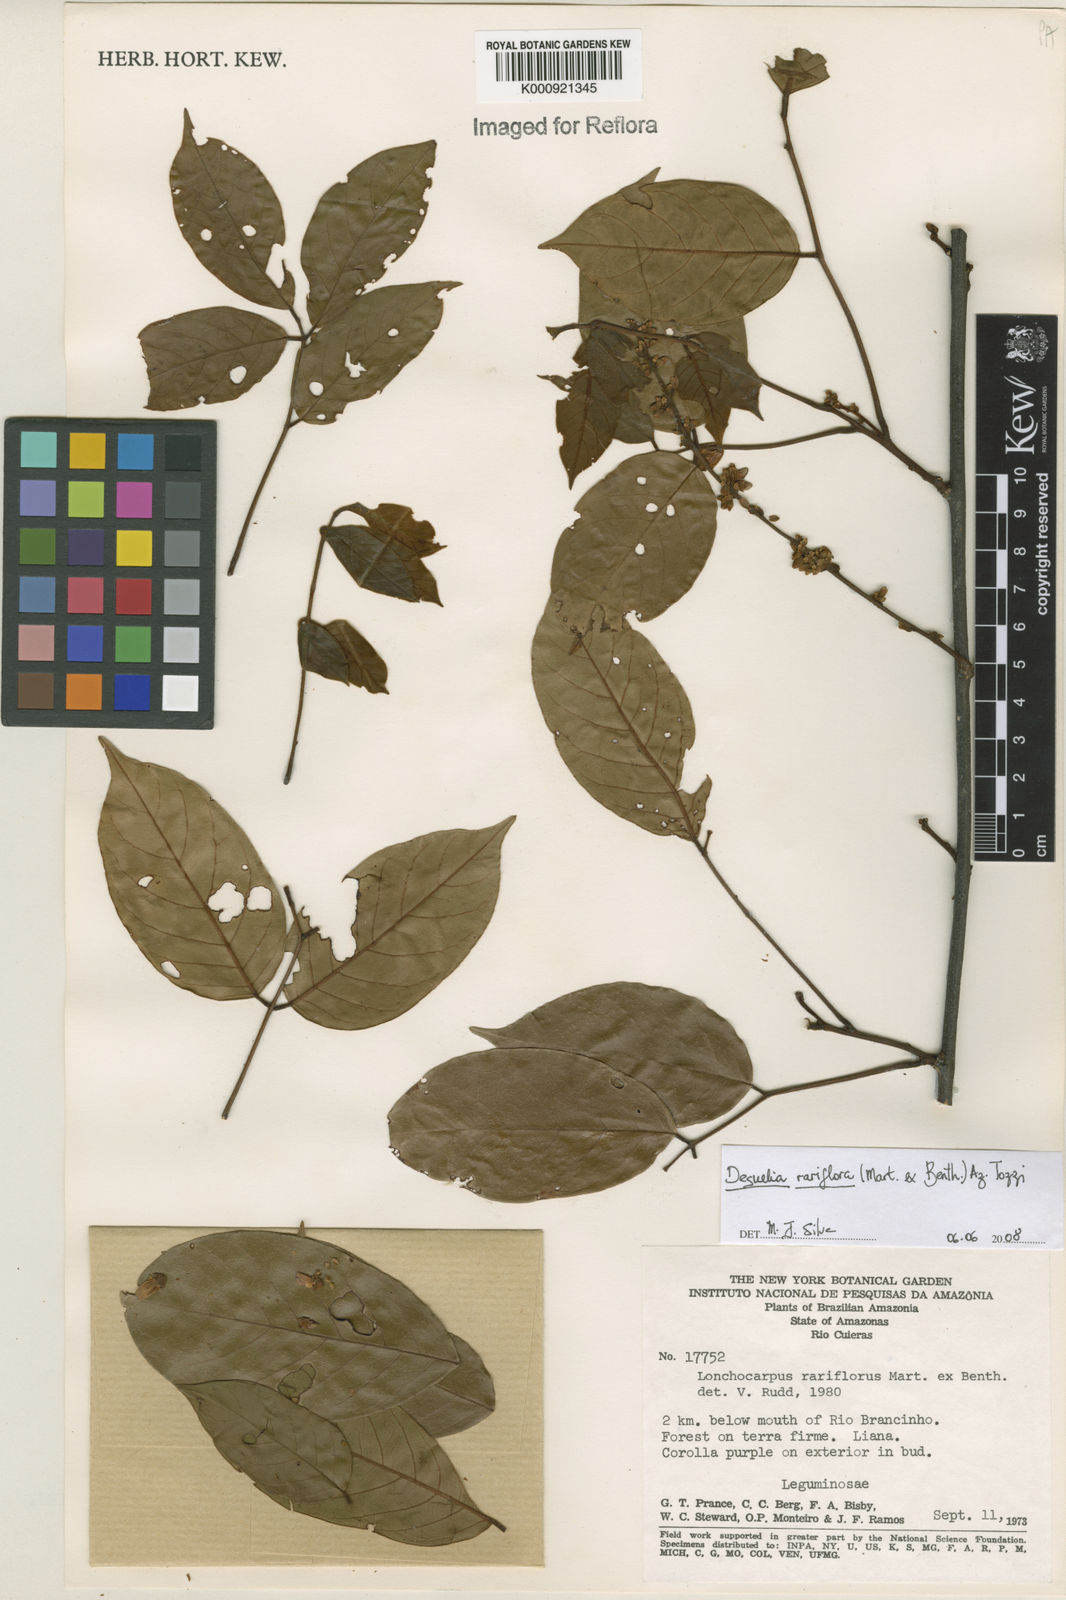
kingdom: Plantae
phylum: Tracheophyta
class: Magnoliopsida
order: Fabales
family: Fabaceae
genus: Deguelia
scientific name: Deguelia
